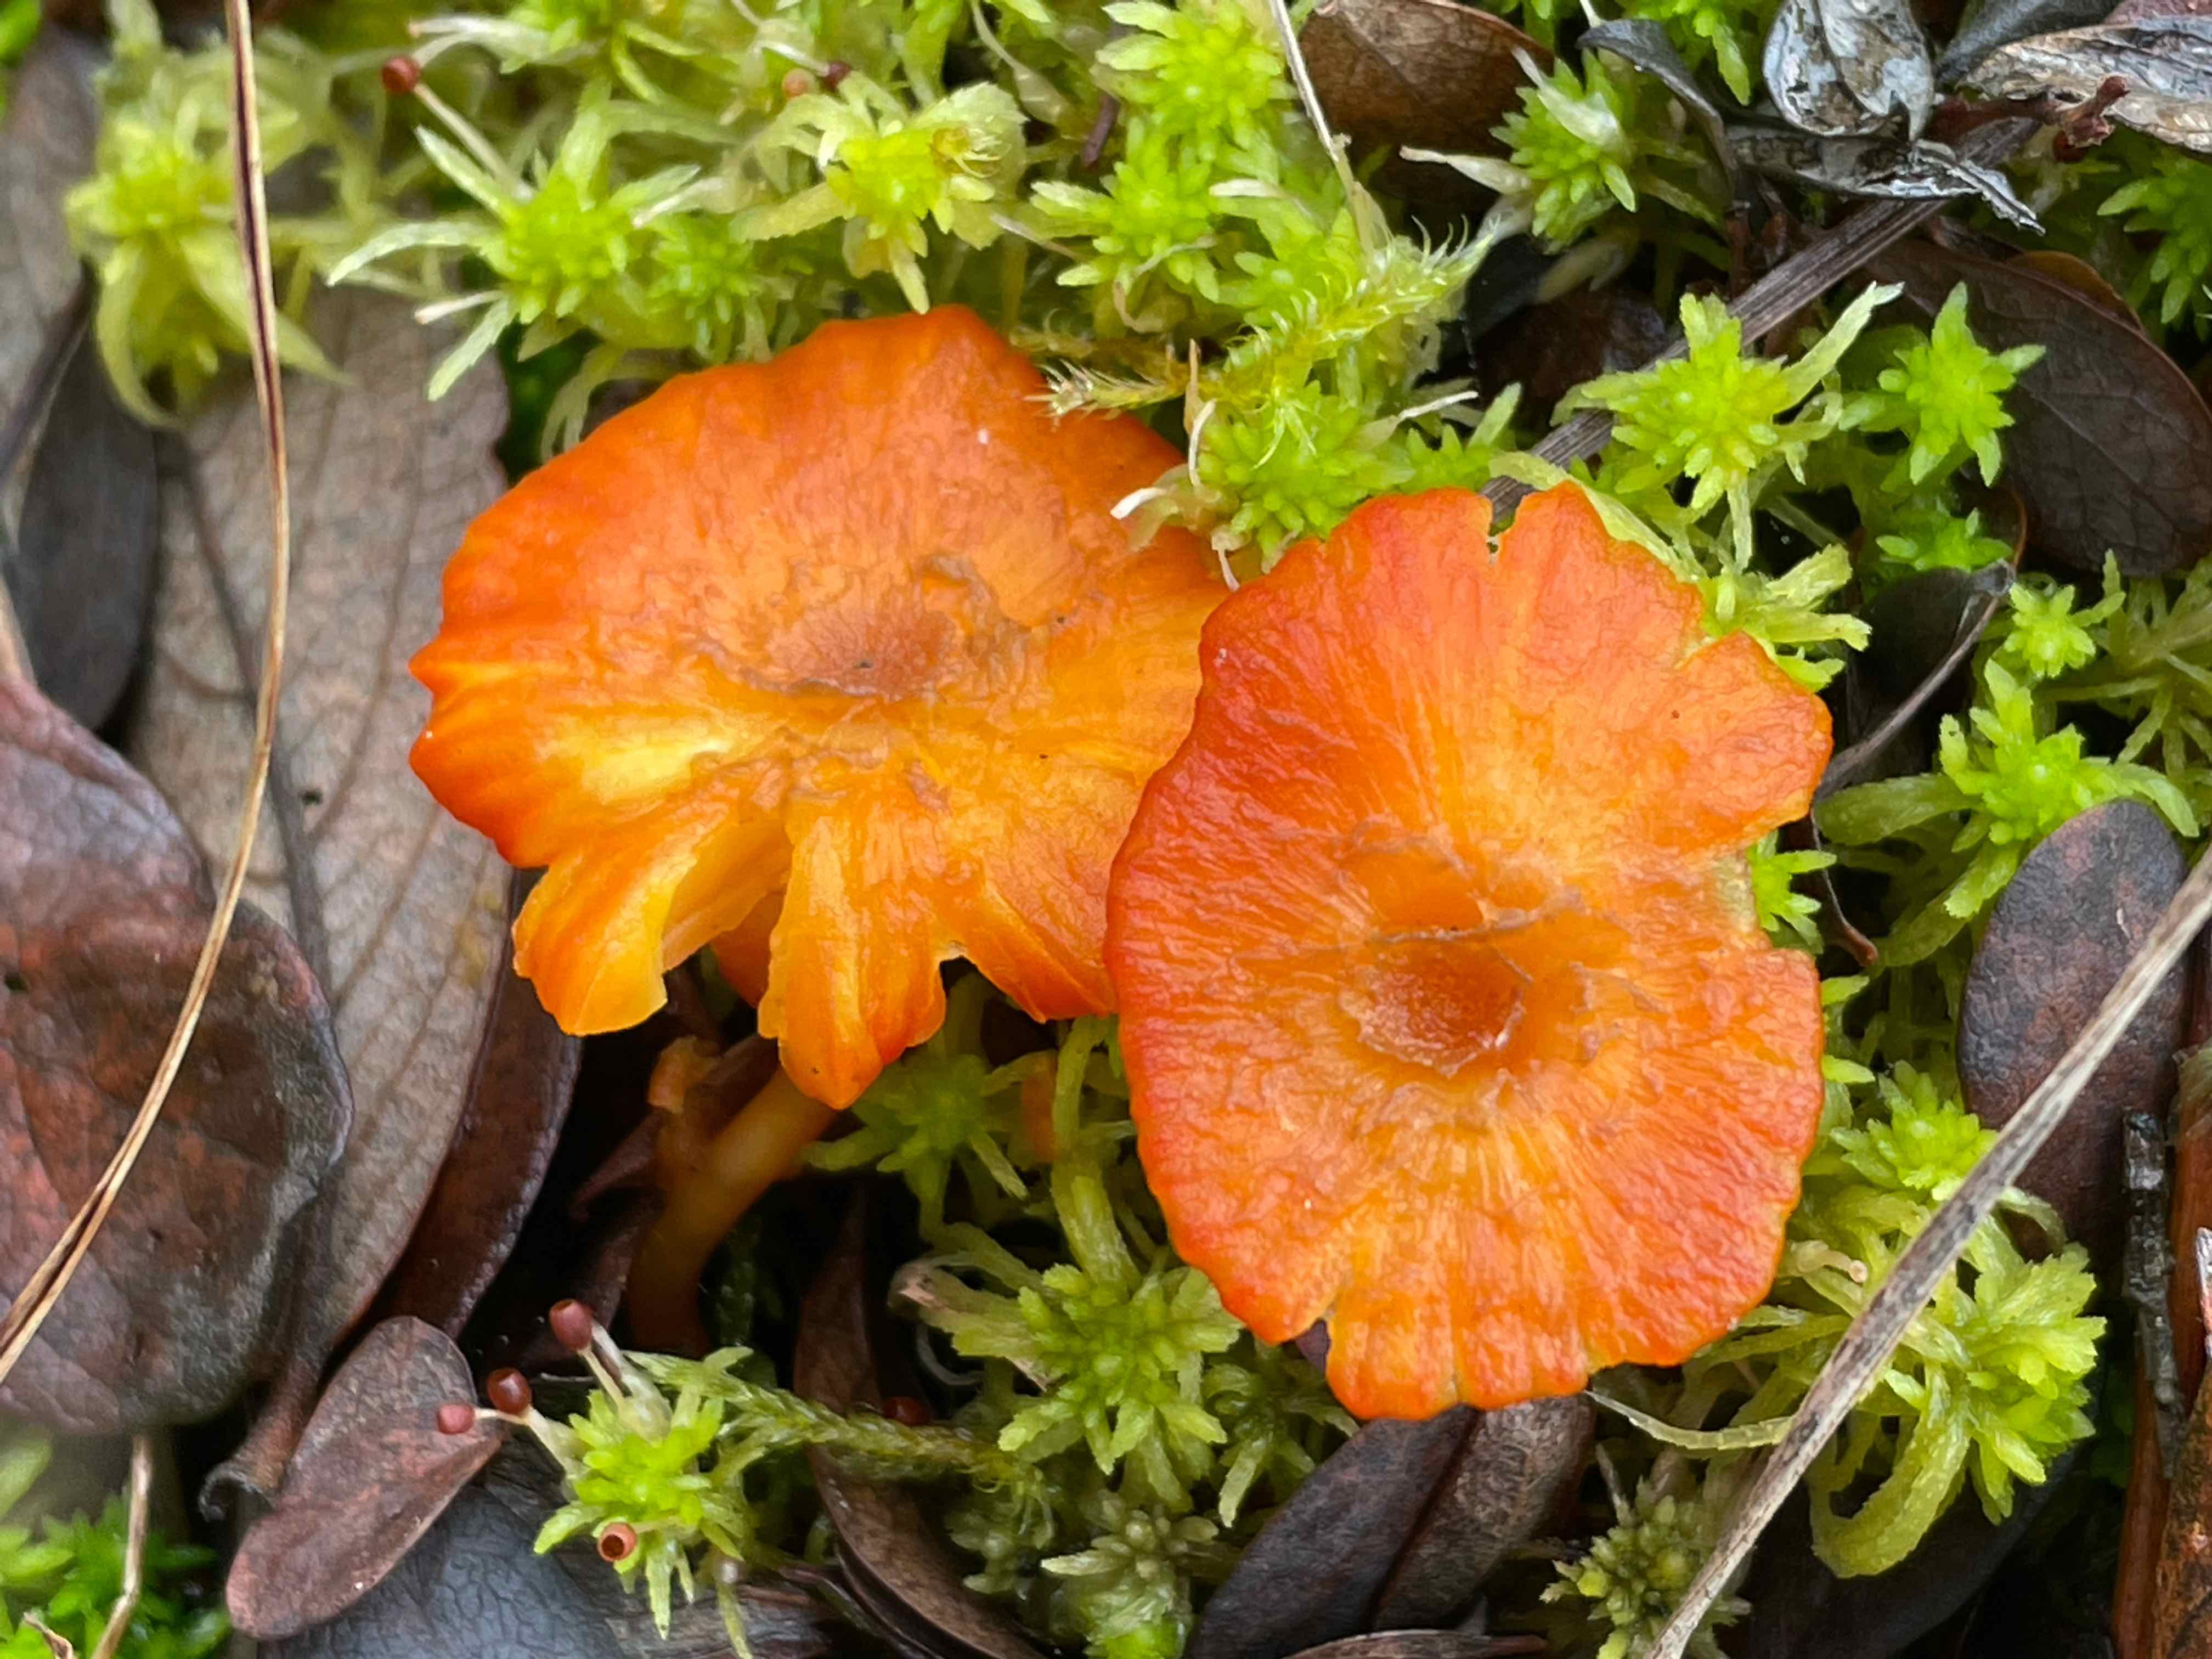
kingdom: Fungi
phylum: Basidiomycota
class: Agaricomycetes
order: Agaricales
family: Hygrophoraceae
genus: Hygrocybe
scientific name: Hygrocybe coccineocrenata
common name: tørvemos-vokshat
